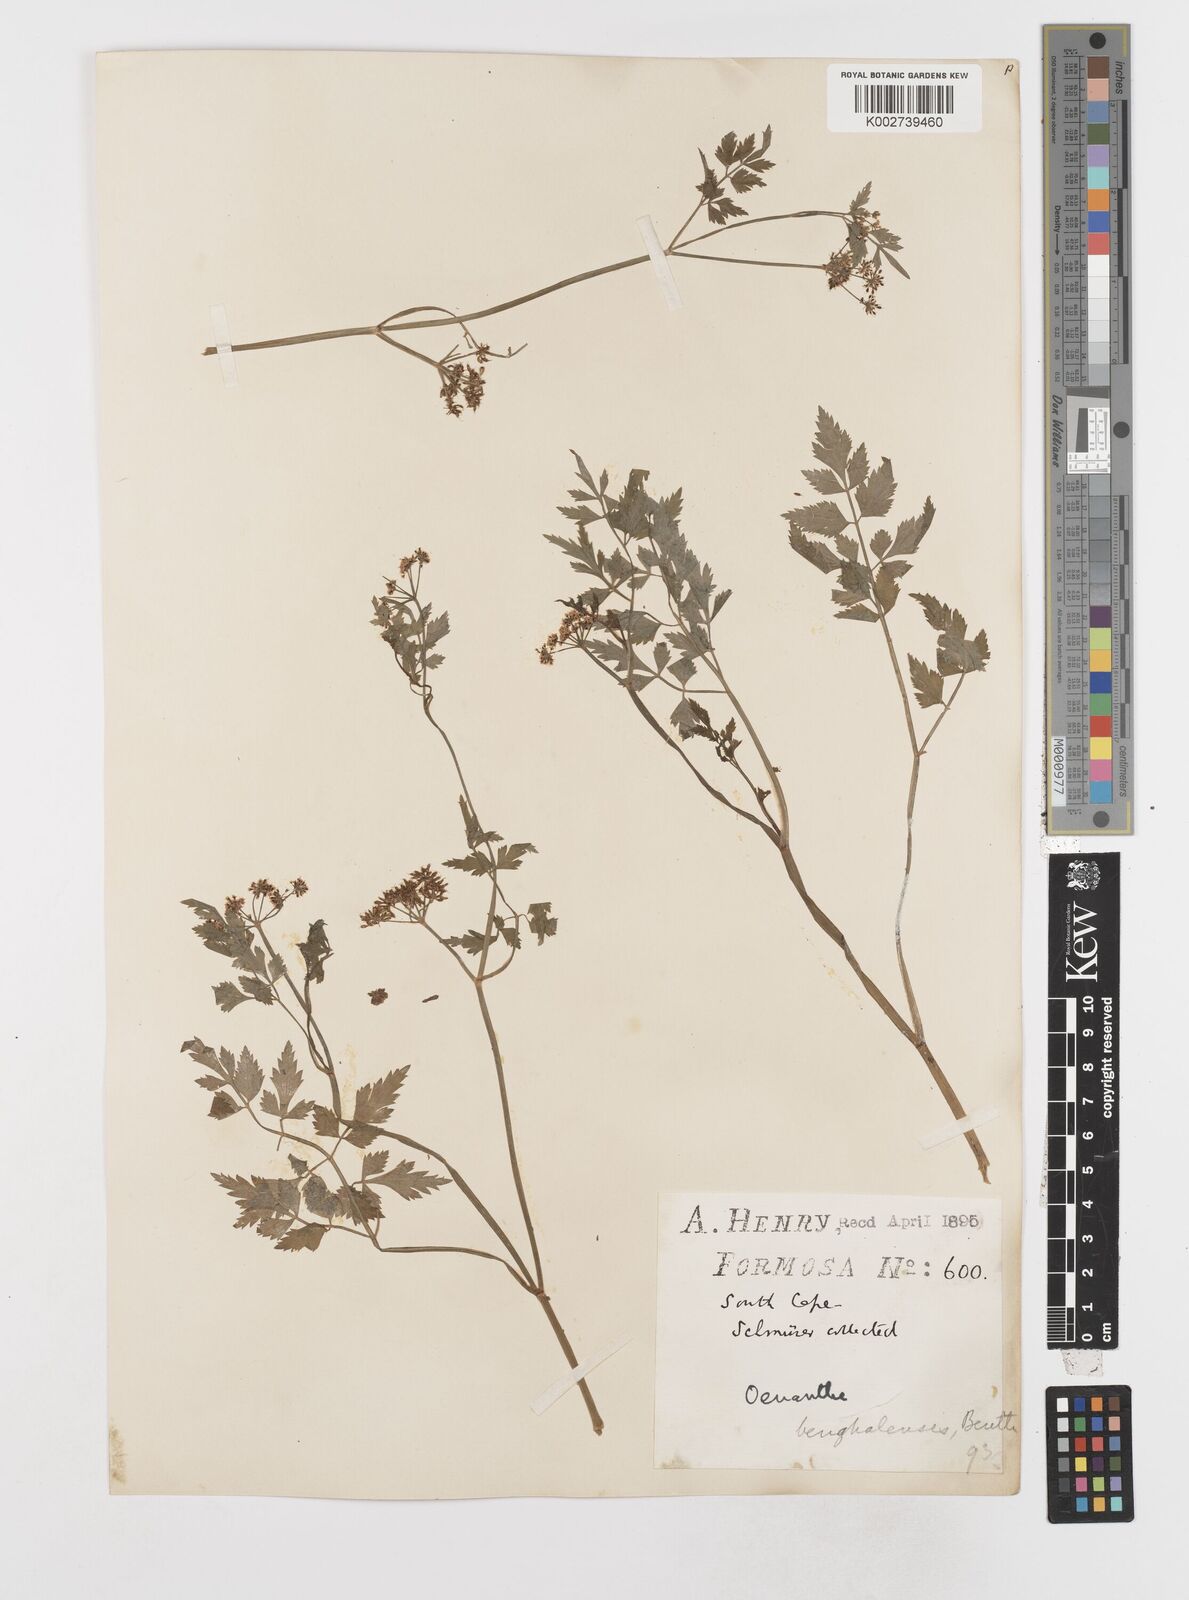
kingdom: Plantae
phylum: Tracheophyta
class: Magnoliopsida
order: Apiales
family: Apiaceae
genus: Oenanthe
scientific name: Oenanthe javanica
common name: Java water-dropwort
